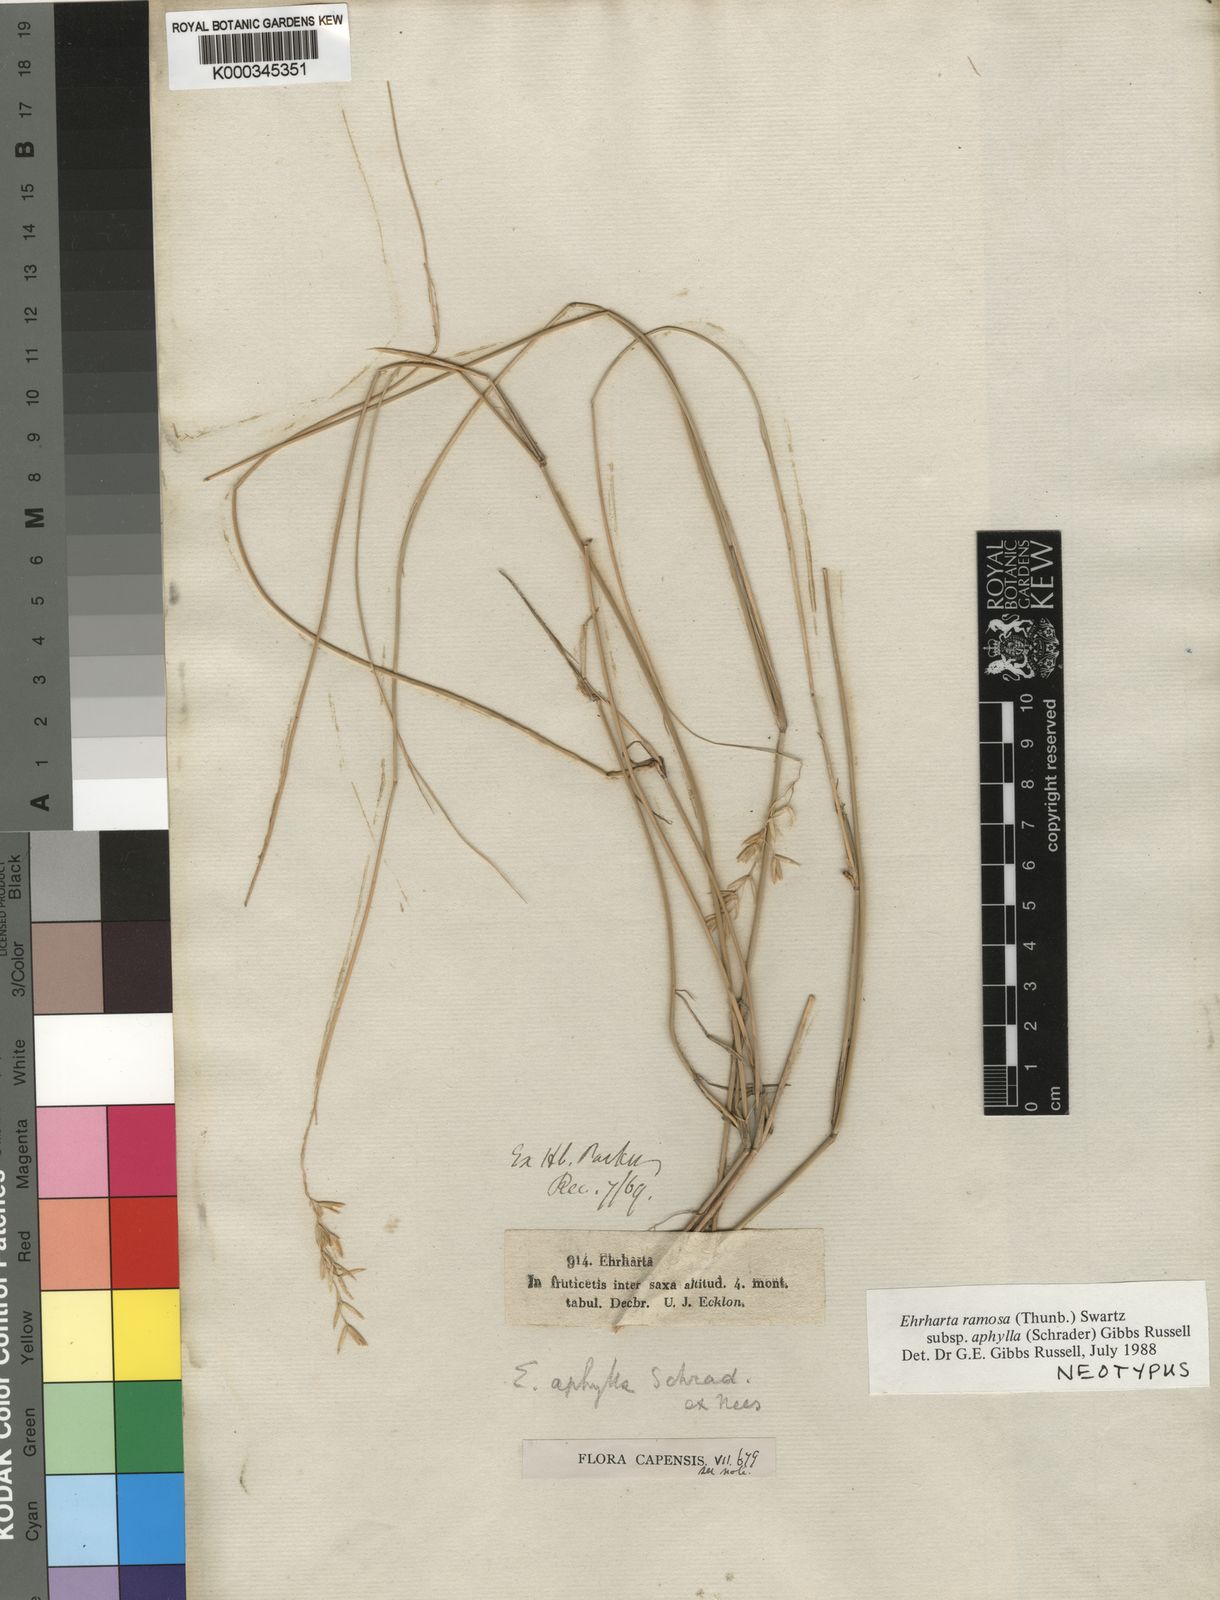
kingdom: Plantae
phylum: Tracheophyta
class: Liliopsida
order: Poales
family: Poaceae
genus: Ehrharta
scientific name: Ehrharta ramosa
